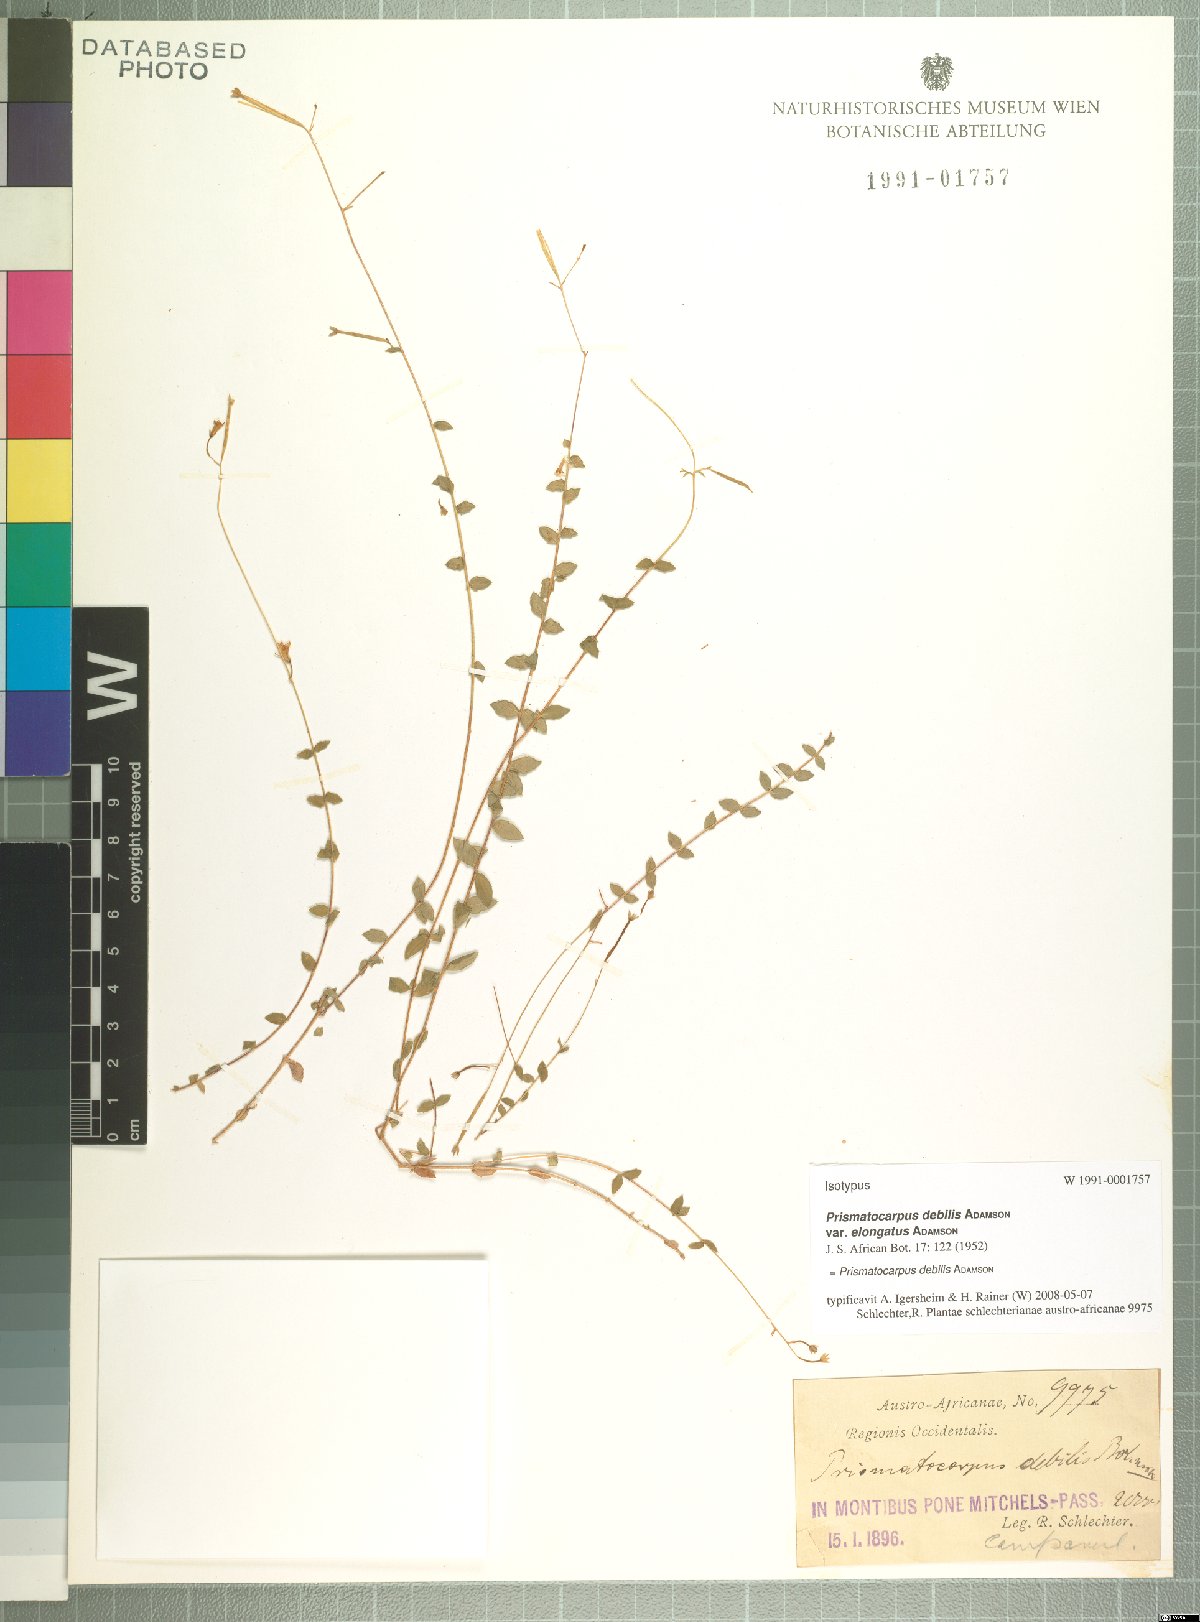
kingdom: Plantae
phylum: Tracheophyta
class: Magnoliopsida
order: Asterales
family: Campanulaceae
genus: Prismatocarpus
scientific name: Prismatocarpus debilis
